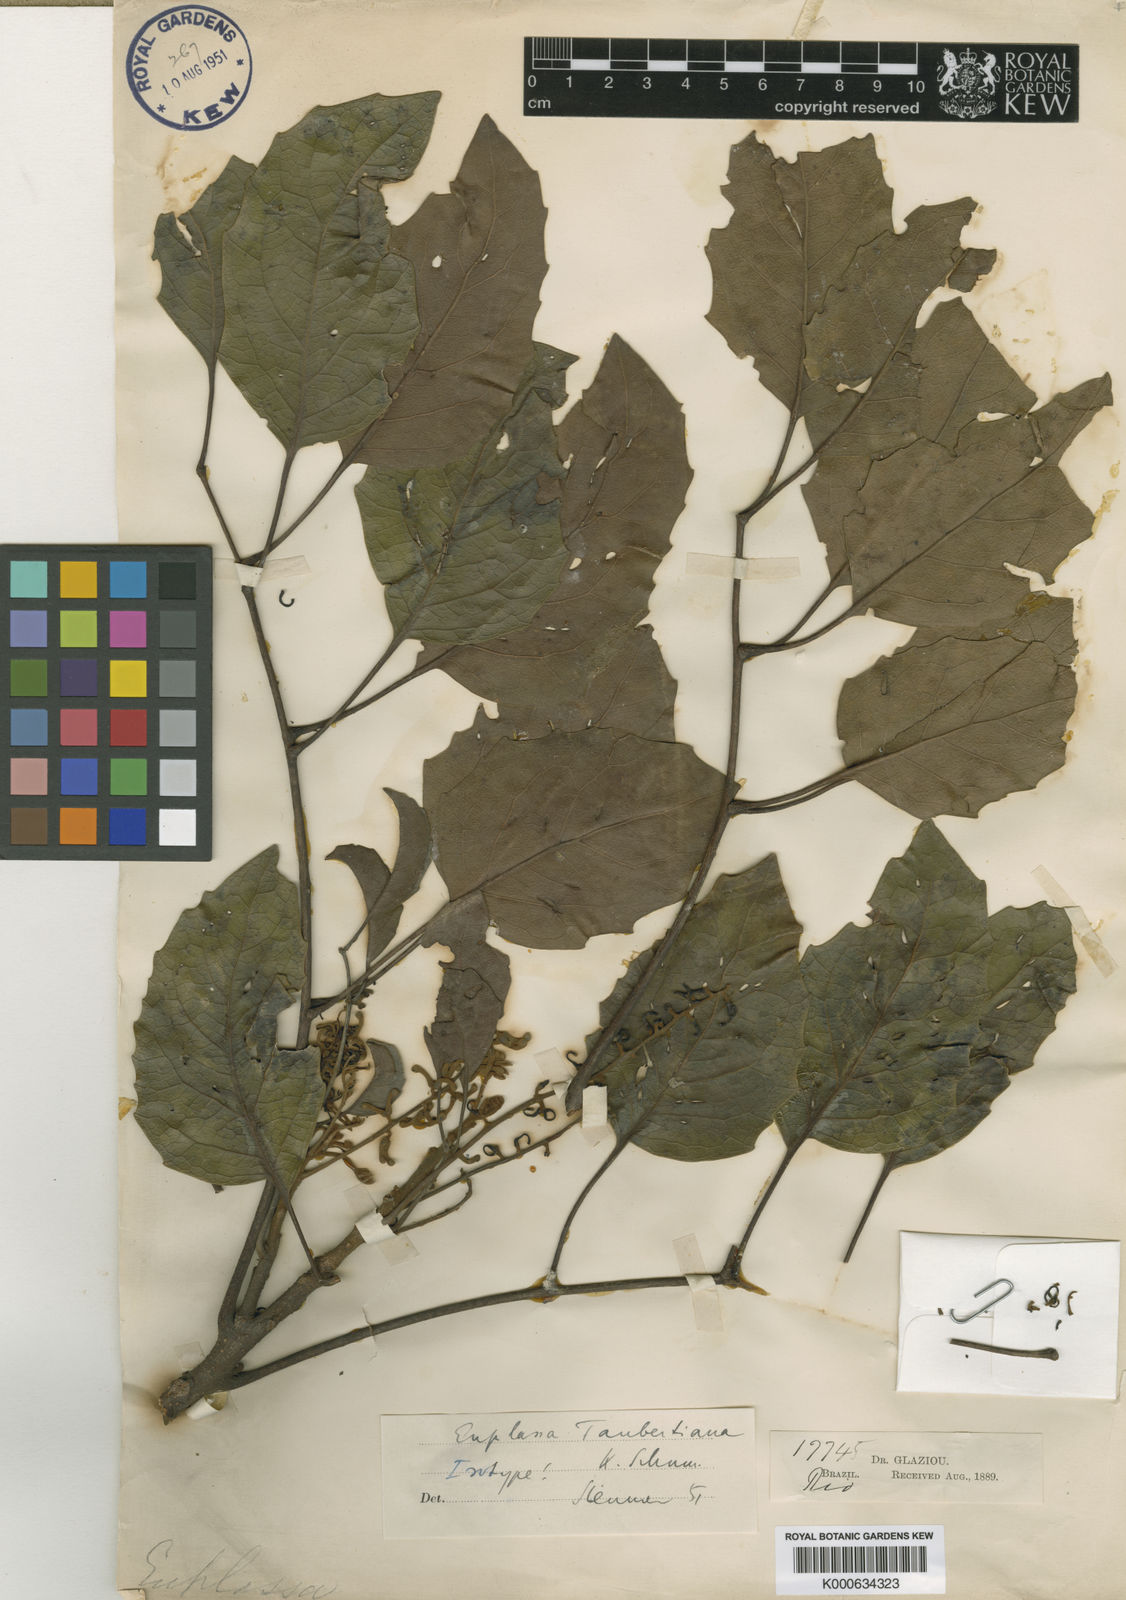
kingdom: Plantae
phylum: Tracheophyta
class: Magnoliopsida
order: Proteales
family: Proteaceae
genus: Euplassa
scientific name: Euplassa taubertiana
